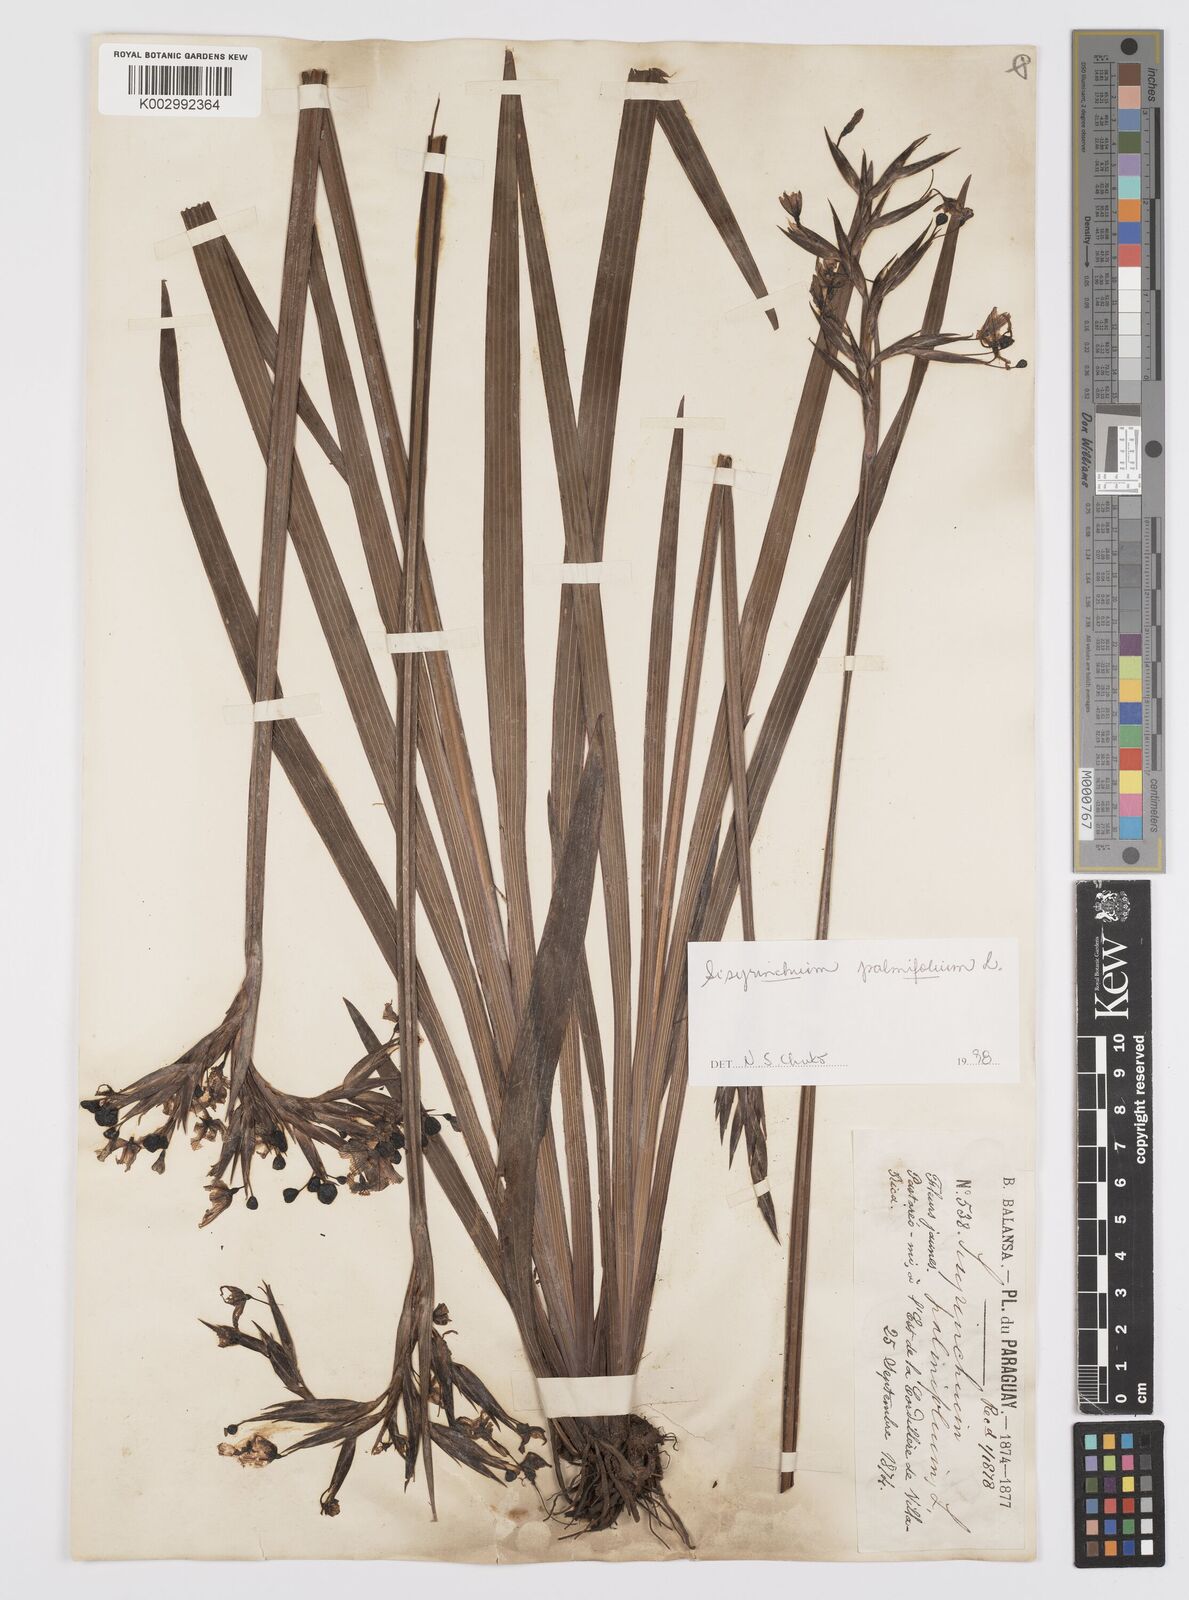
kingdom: Plantae
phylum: Tracheophyta
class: Liliopsida
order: Asparagales
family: Iridaceae
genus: Sisyrinchium
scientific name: Sisyrinchium palmifolium
